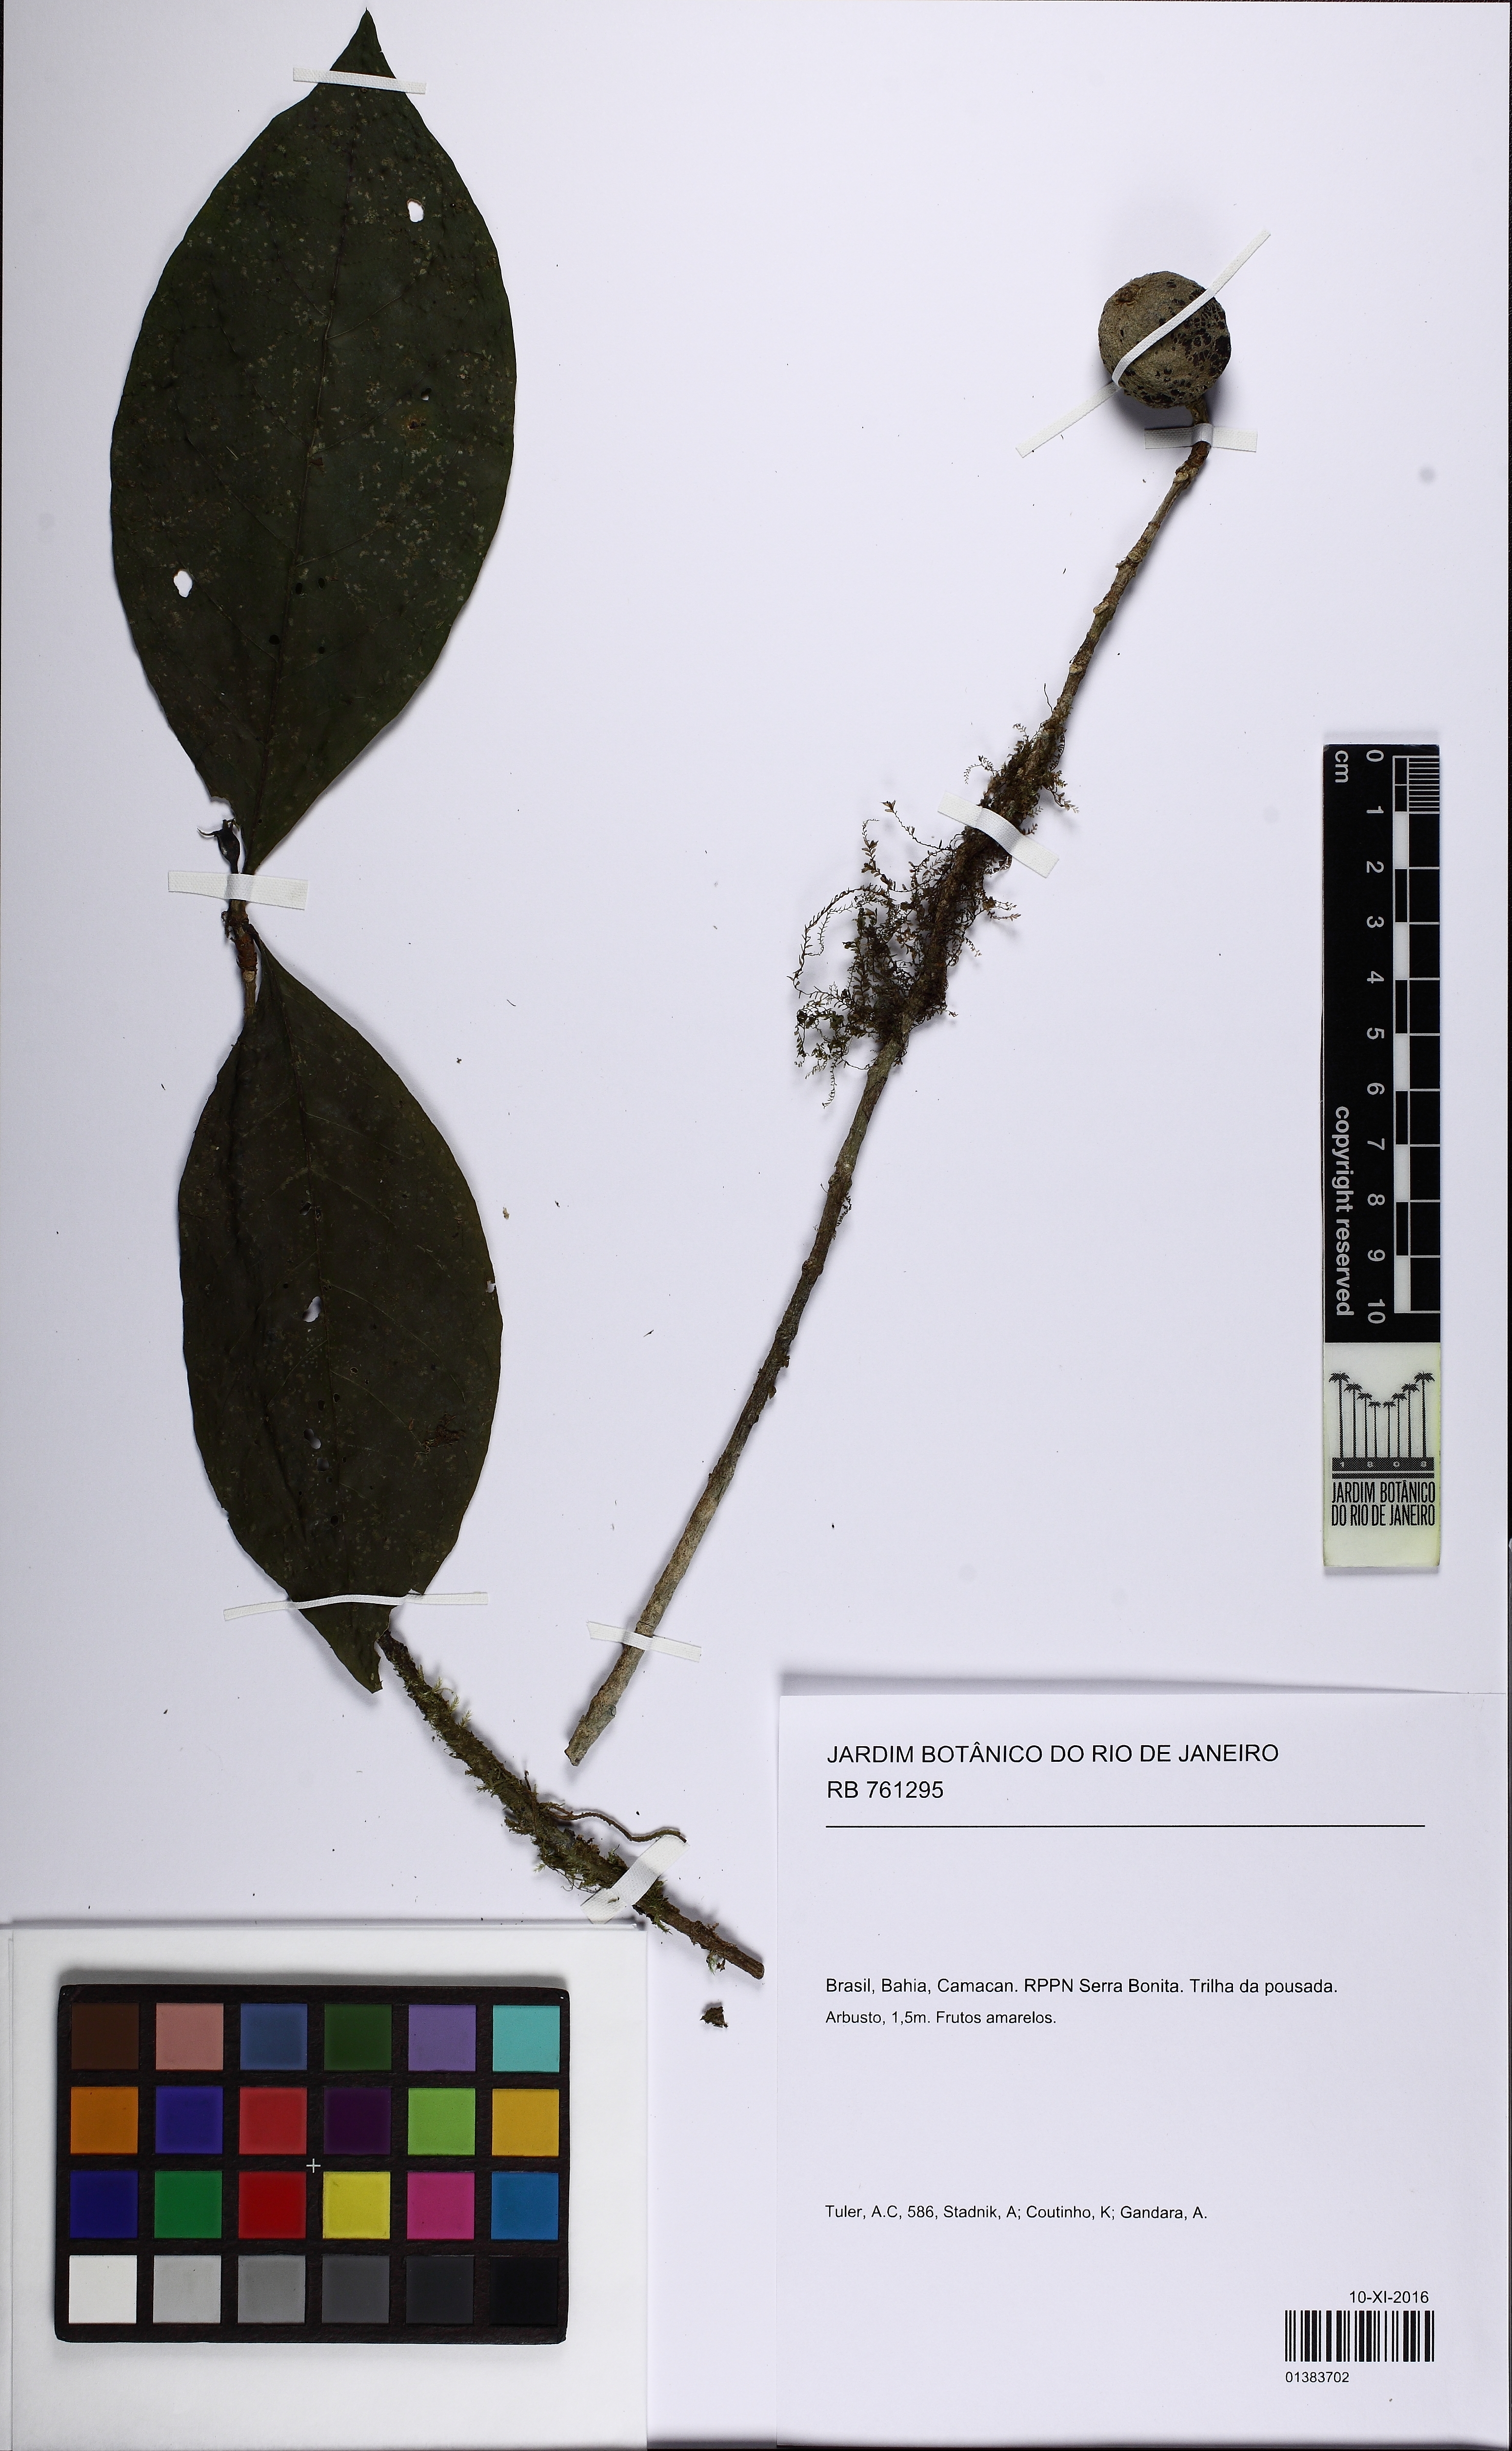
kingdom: Plantae
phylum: Tracheophyta
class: Magnoliopsida
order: Gentianales
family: Rubiaceae
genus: Randia
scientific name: Randia
